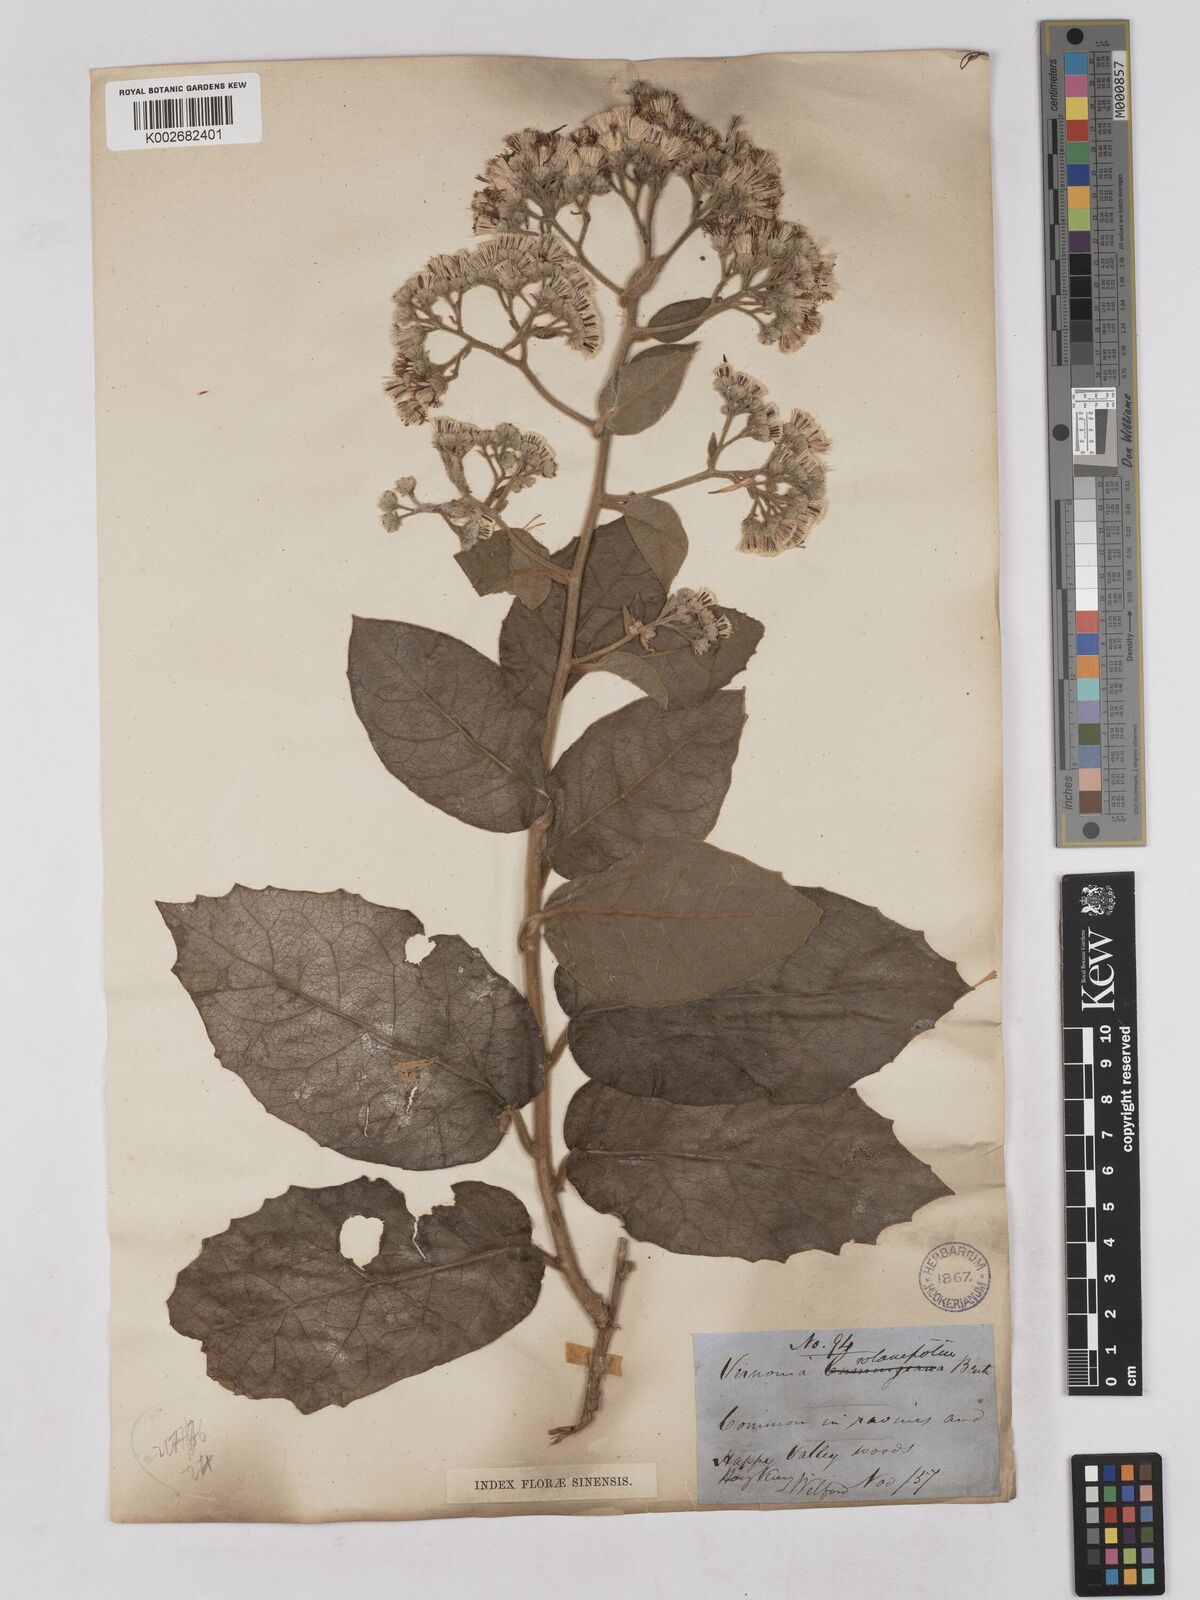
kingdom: Plantae
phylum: Tracheophyta
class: Magnoliopsida
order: Asterales
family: Asteraceae
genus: Strobocalyx
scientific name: Strobocalyx solanifolia
